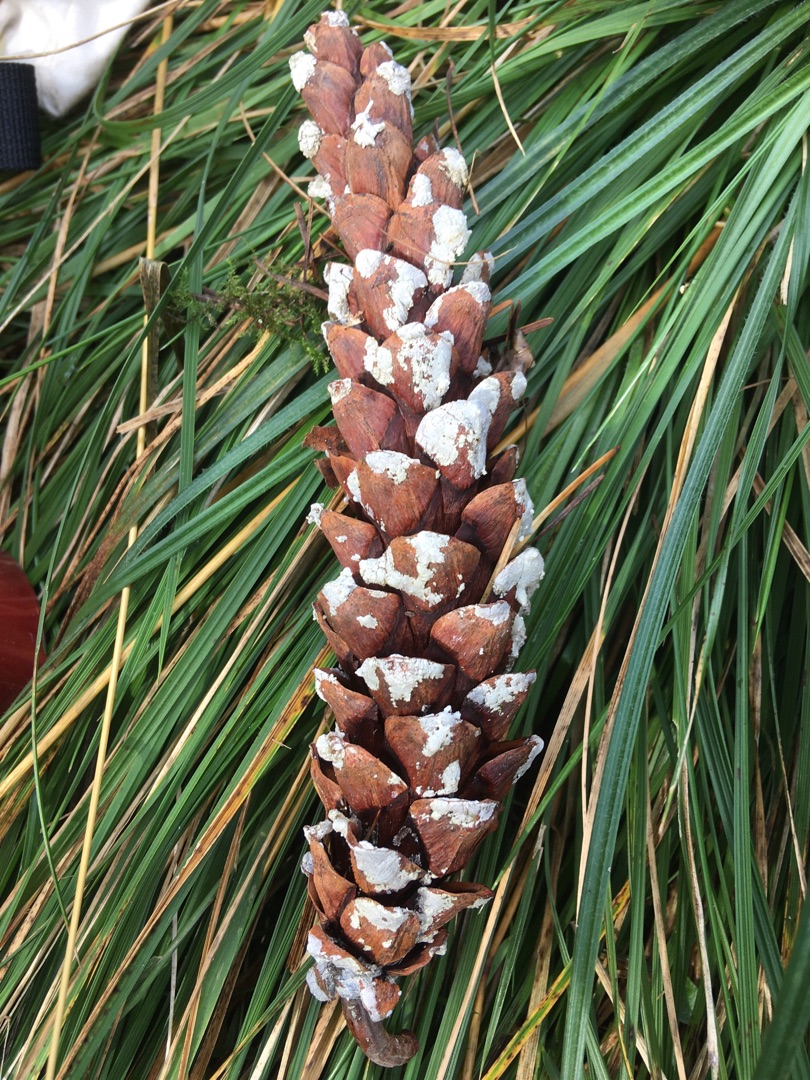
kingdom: Plantae
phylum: Tracheophyta
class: Pinopsida
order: Pinales
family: Pinaceae
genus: Pinus
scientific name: Pinus strobus
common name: Weymouths-fyr
